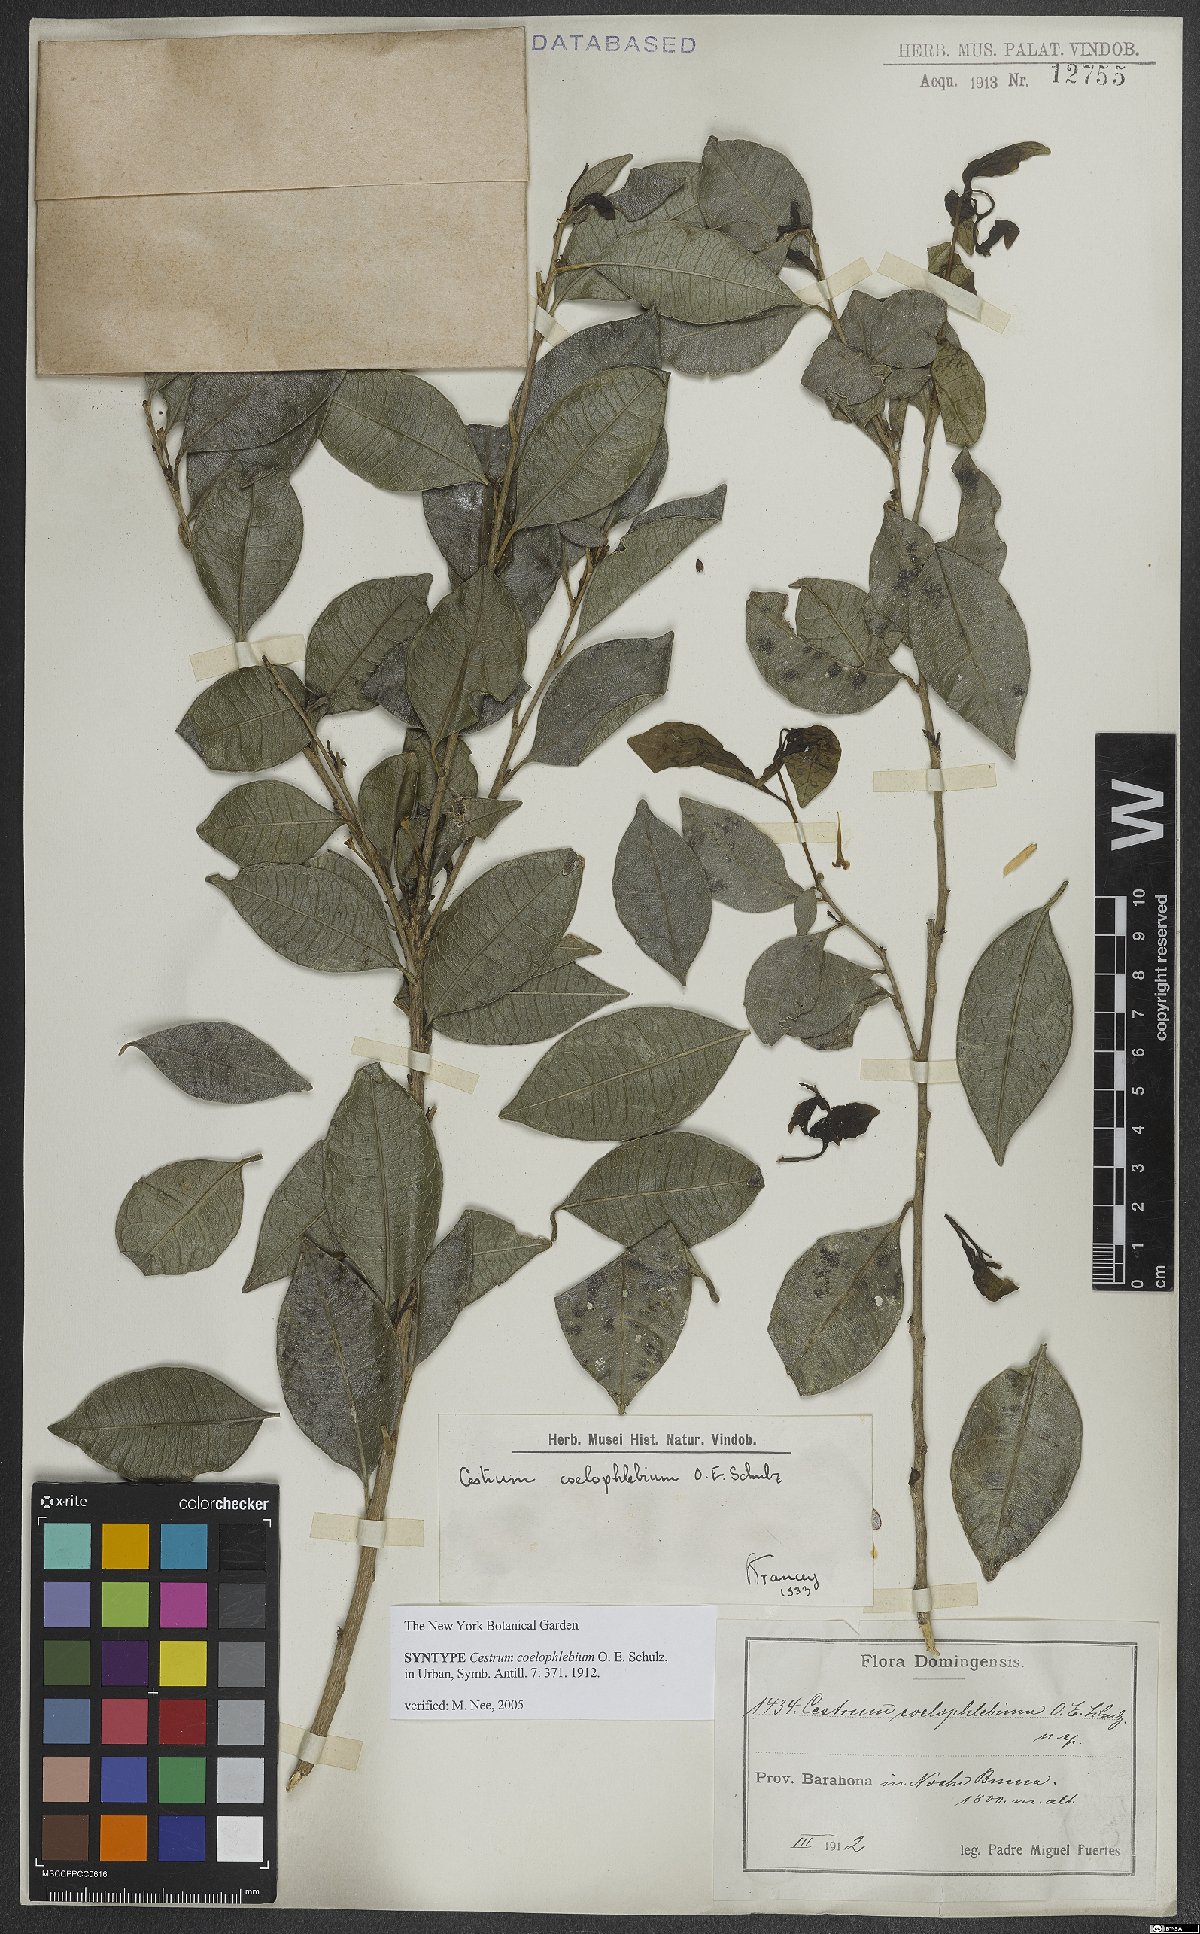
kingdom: Plantae
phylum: Tracheophyta
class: Magnoliopsida
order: Solanales
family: Solanaceae
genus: Cestrum
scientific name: Cestrum coelophlebium
